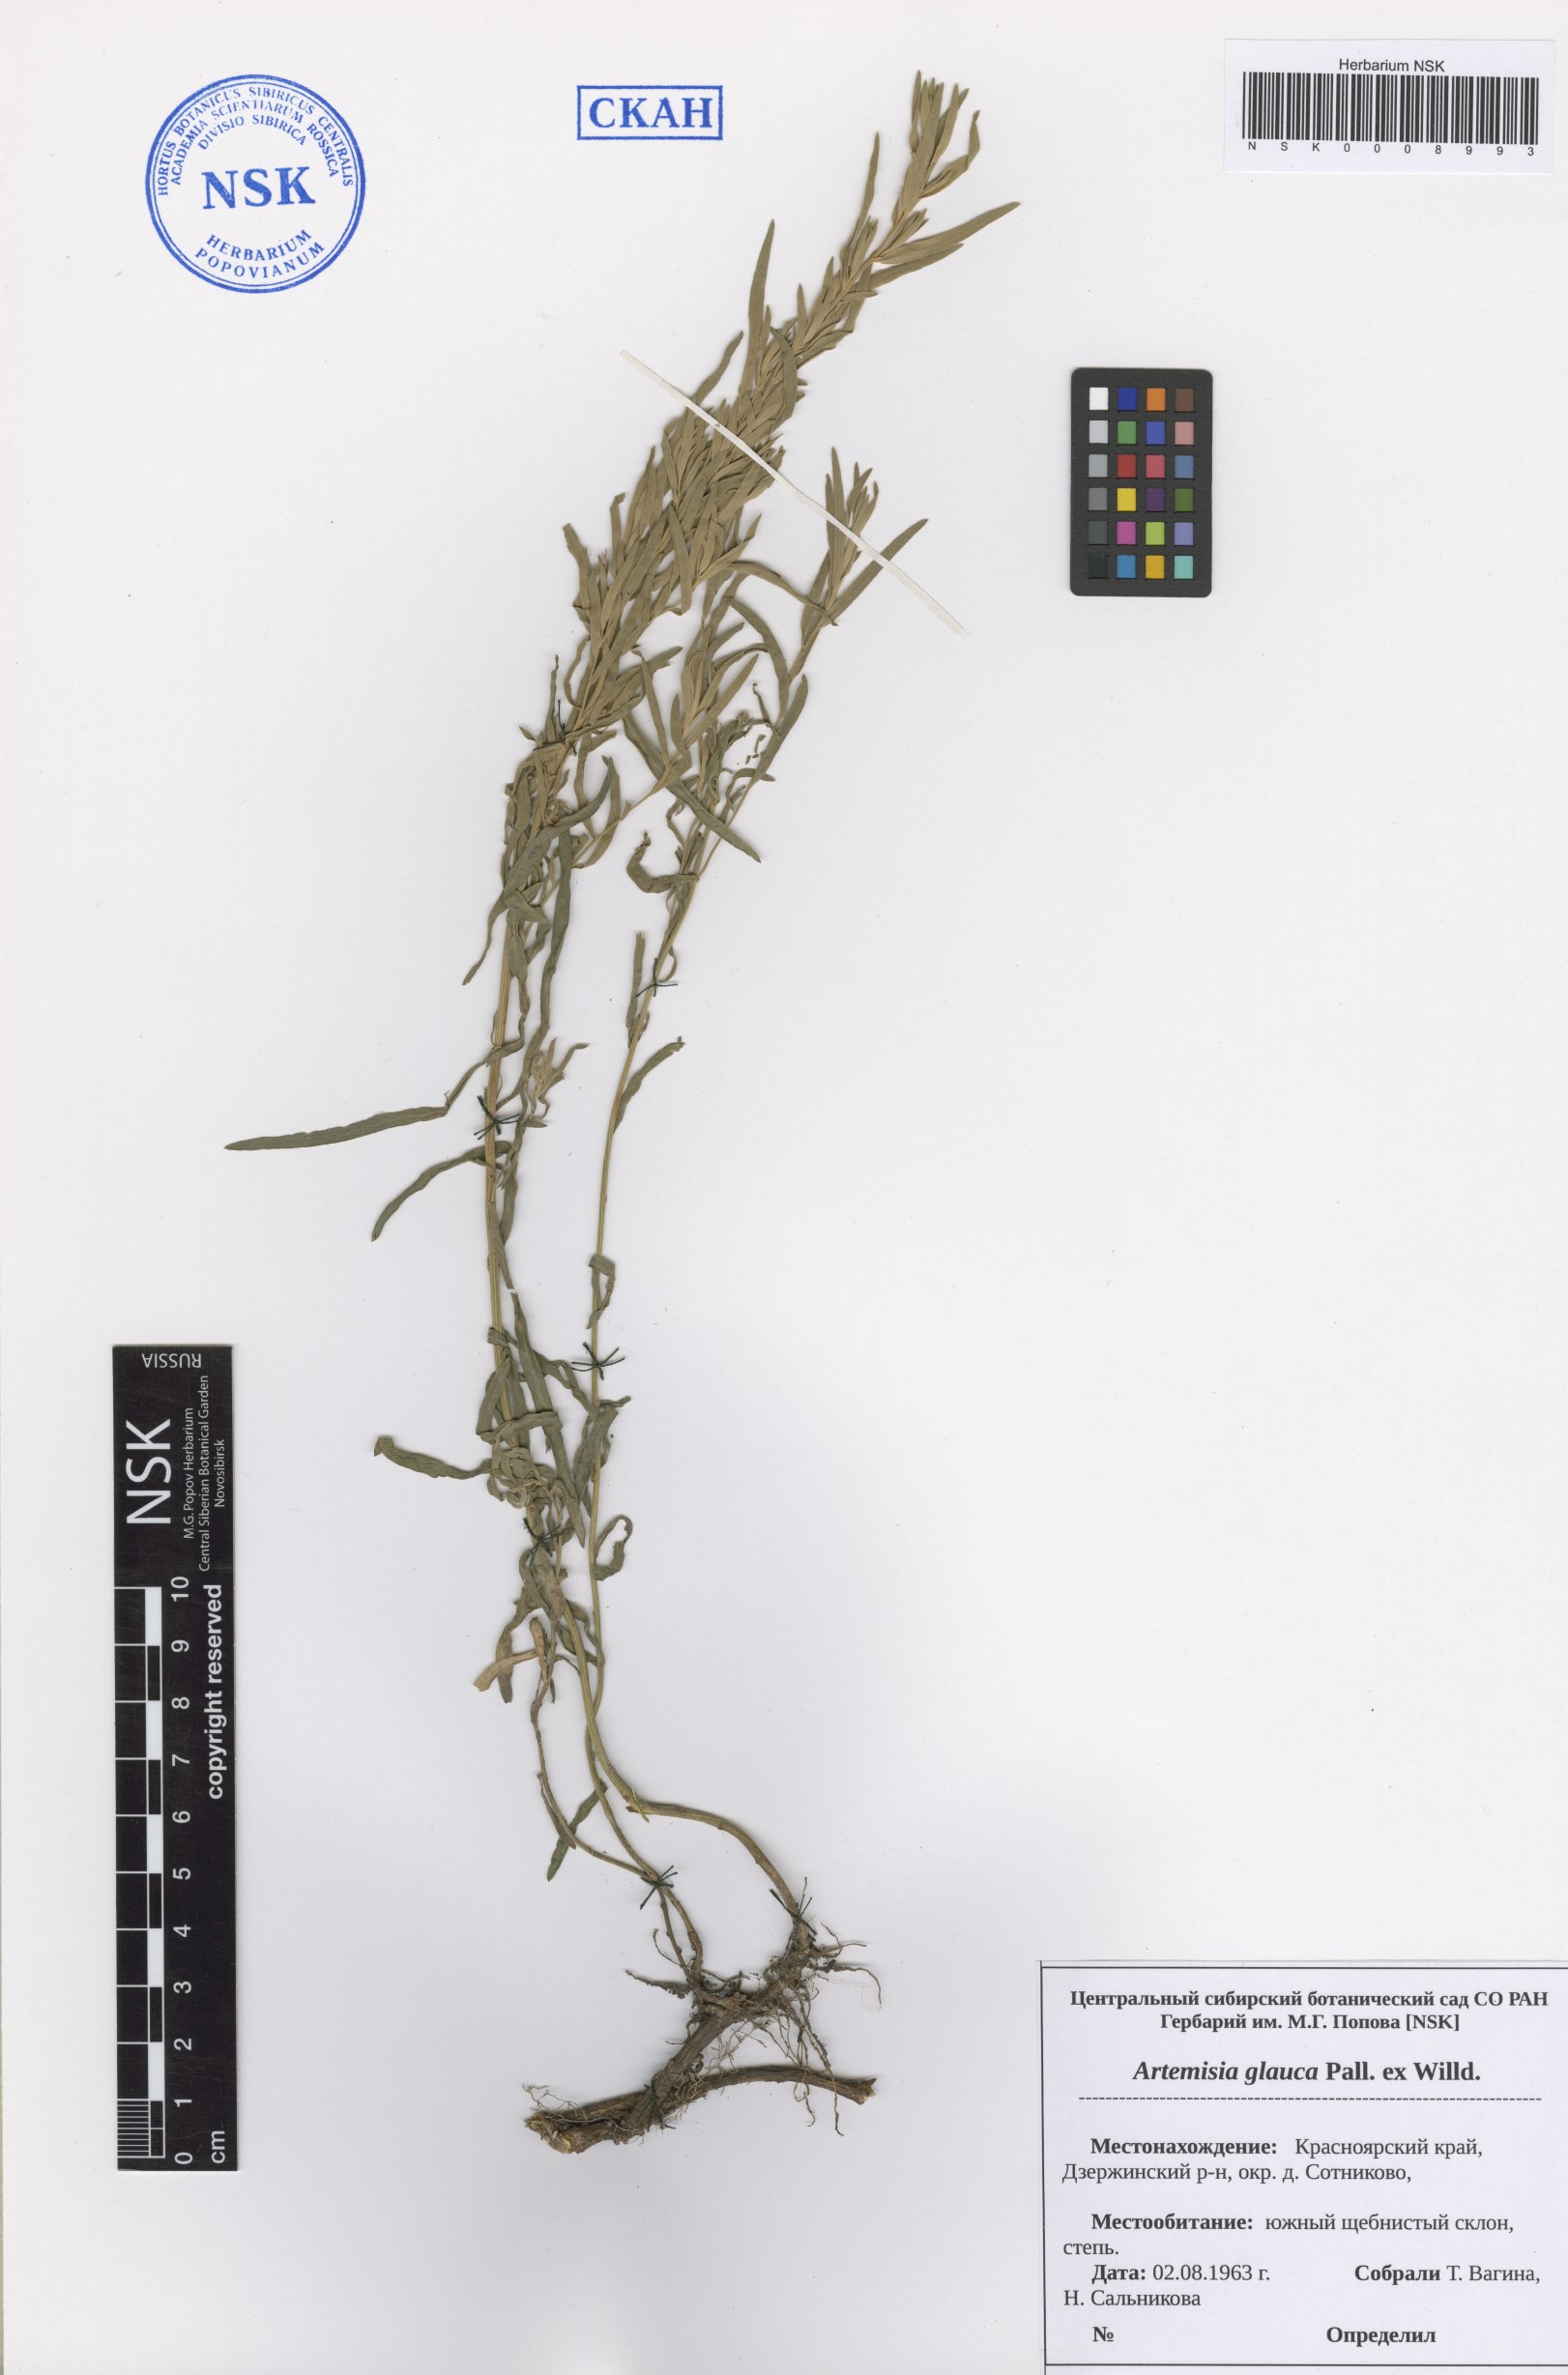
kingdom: Plantae
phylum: Tracheophyta
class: Magnoliopsida
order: Asterales
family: Asteraceae
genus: Artemisia
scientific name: Artemisia glauca
